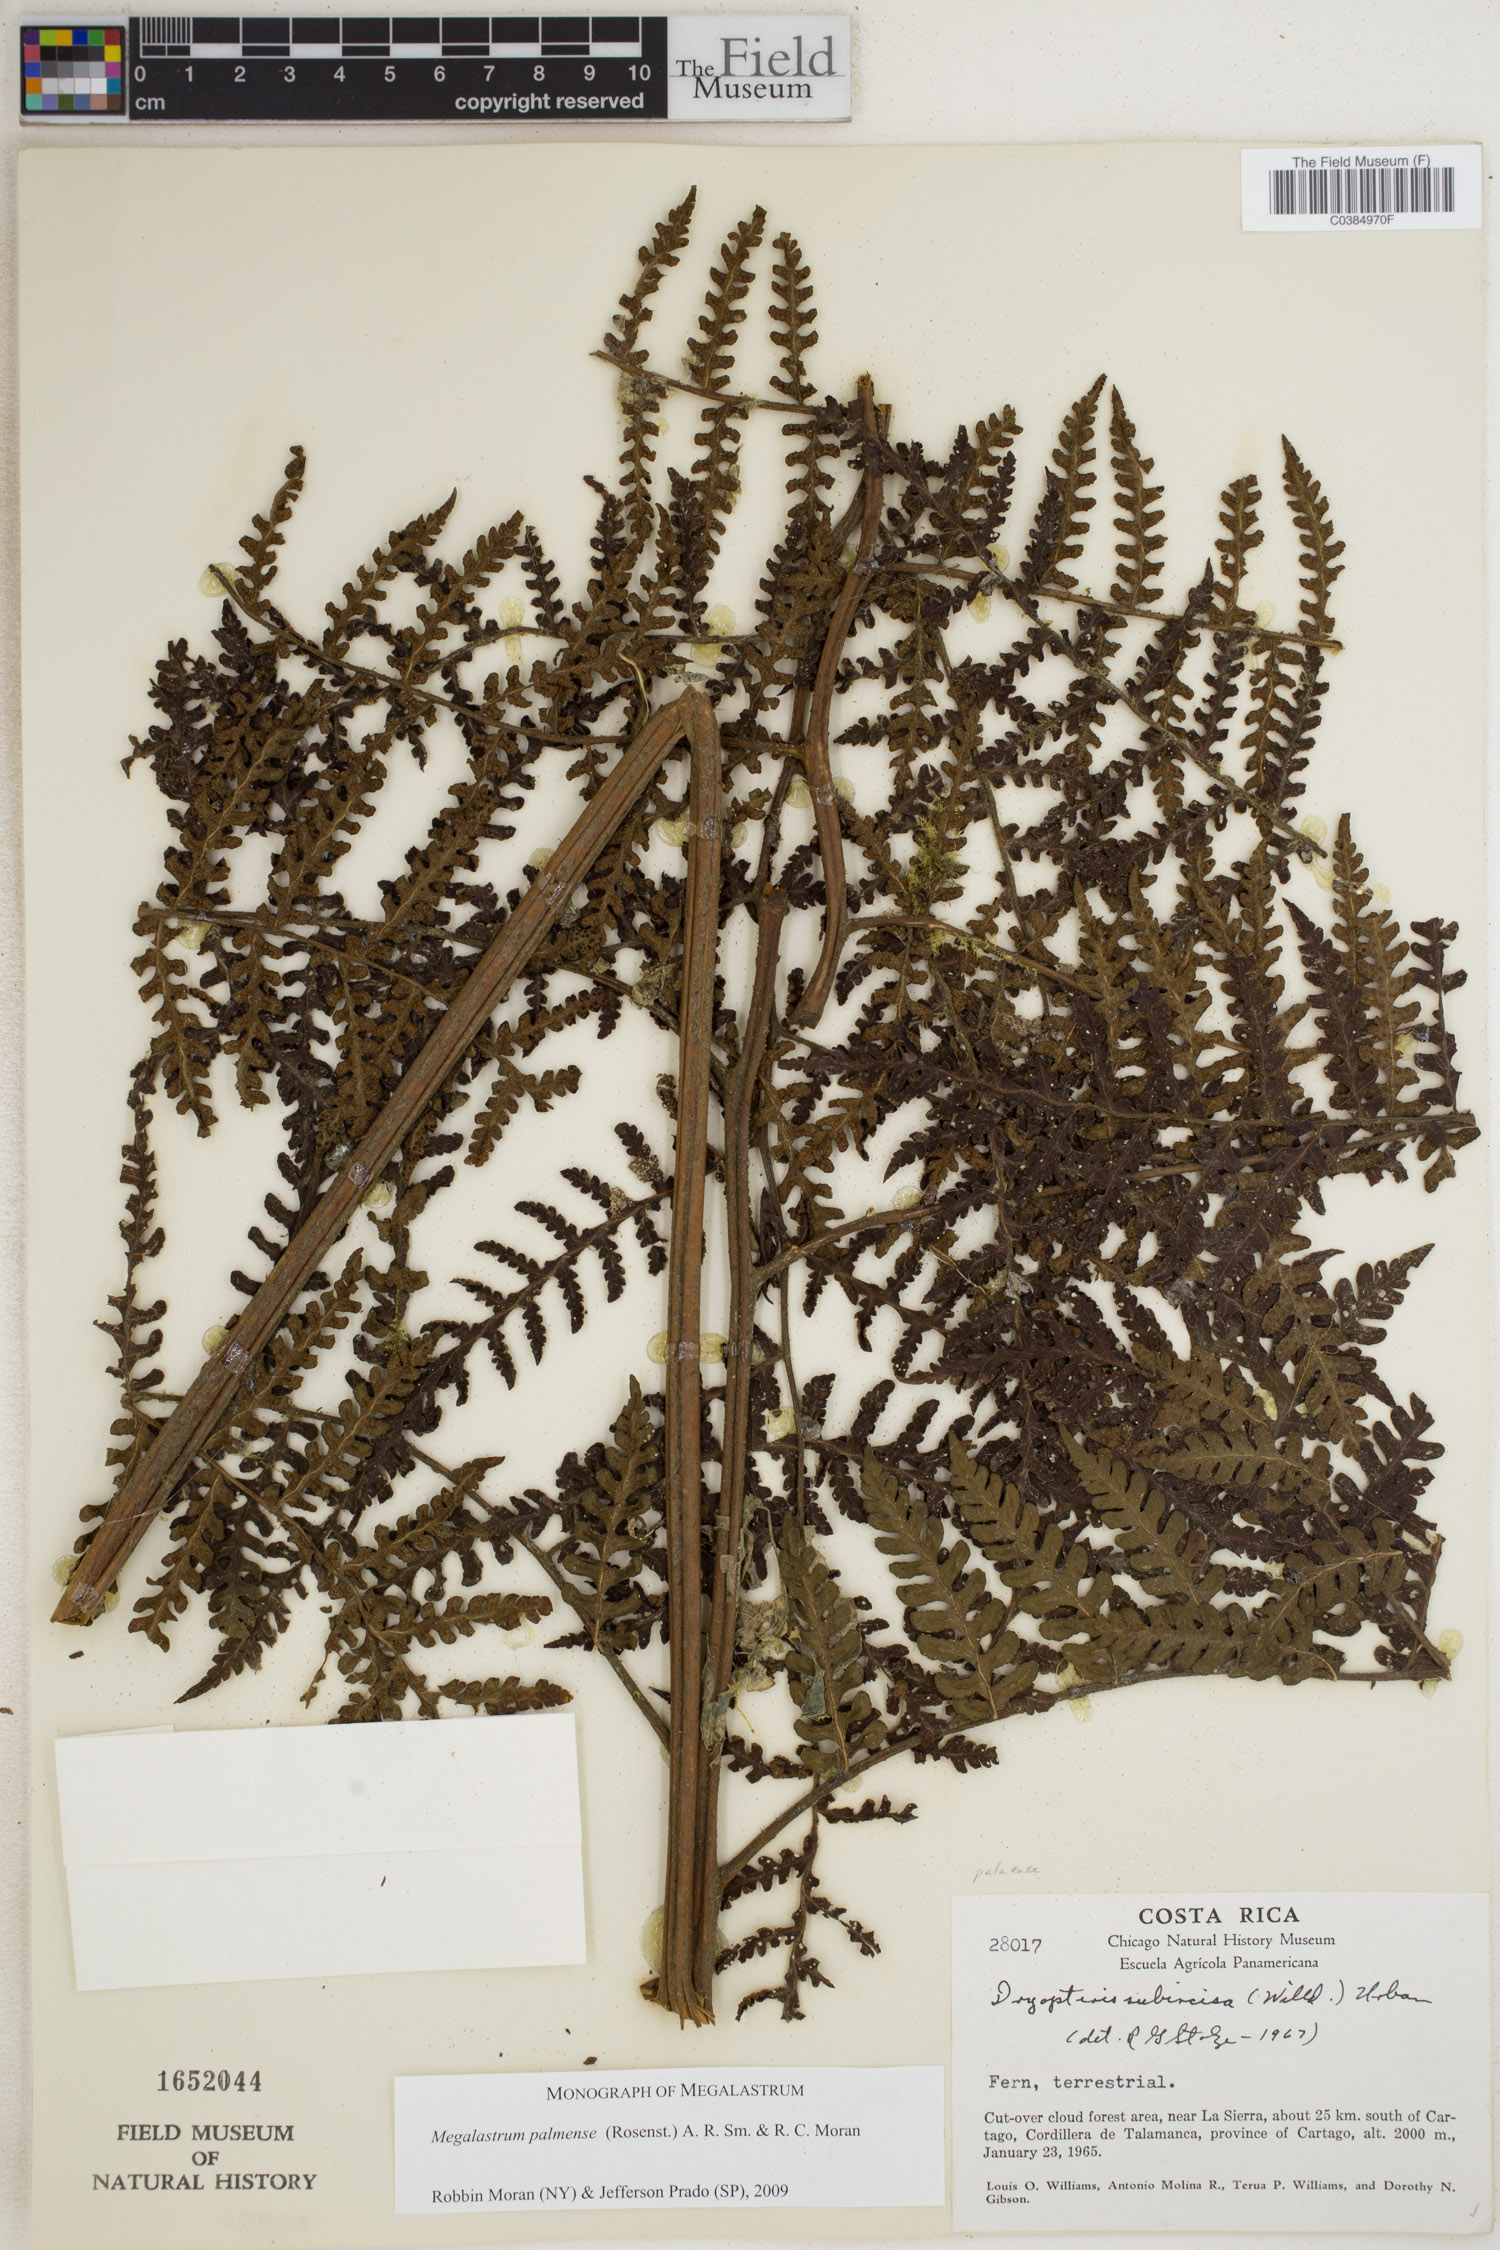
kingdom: Plantae
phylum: Tracheophyta
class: Polypodiopsida
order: Polypodiales
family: Dryopteridaceae
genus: Megalastrum
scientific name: Megalastrum palmense
